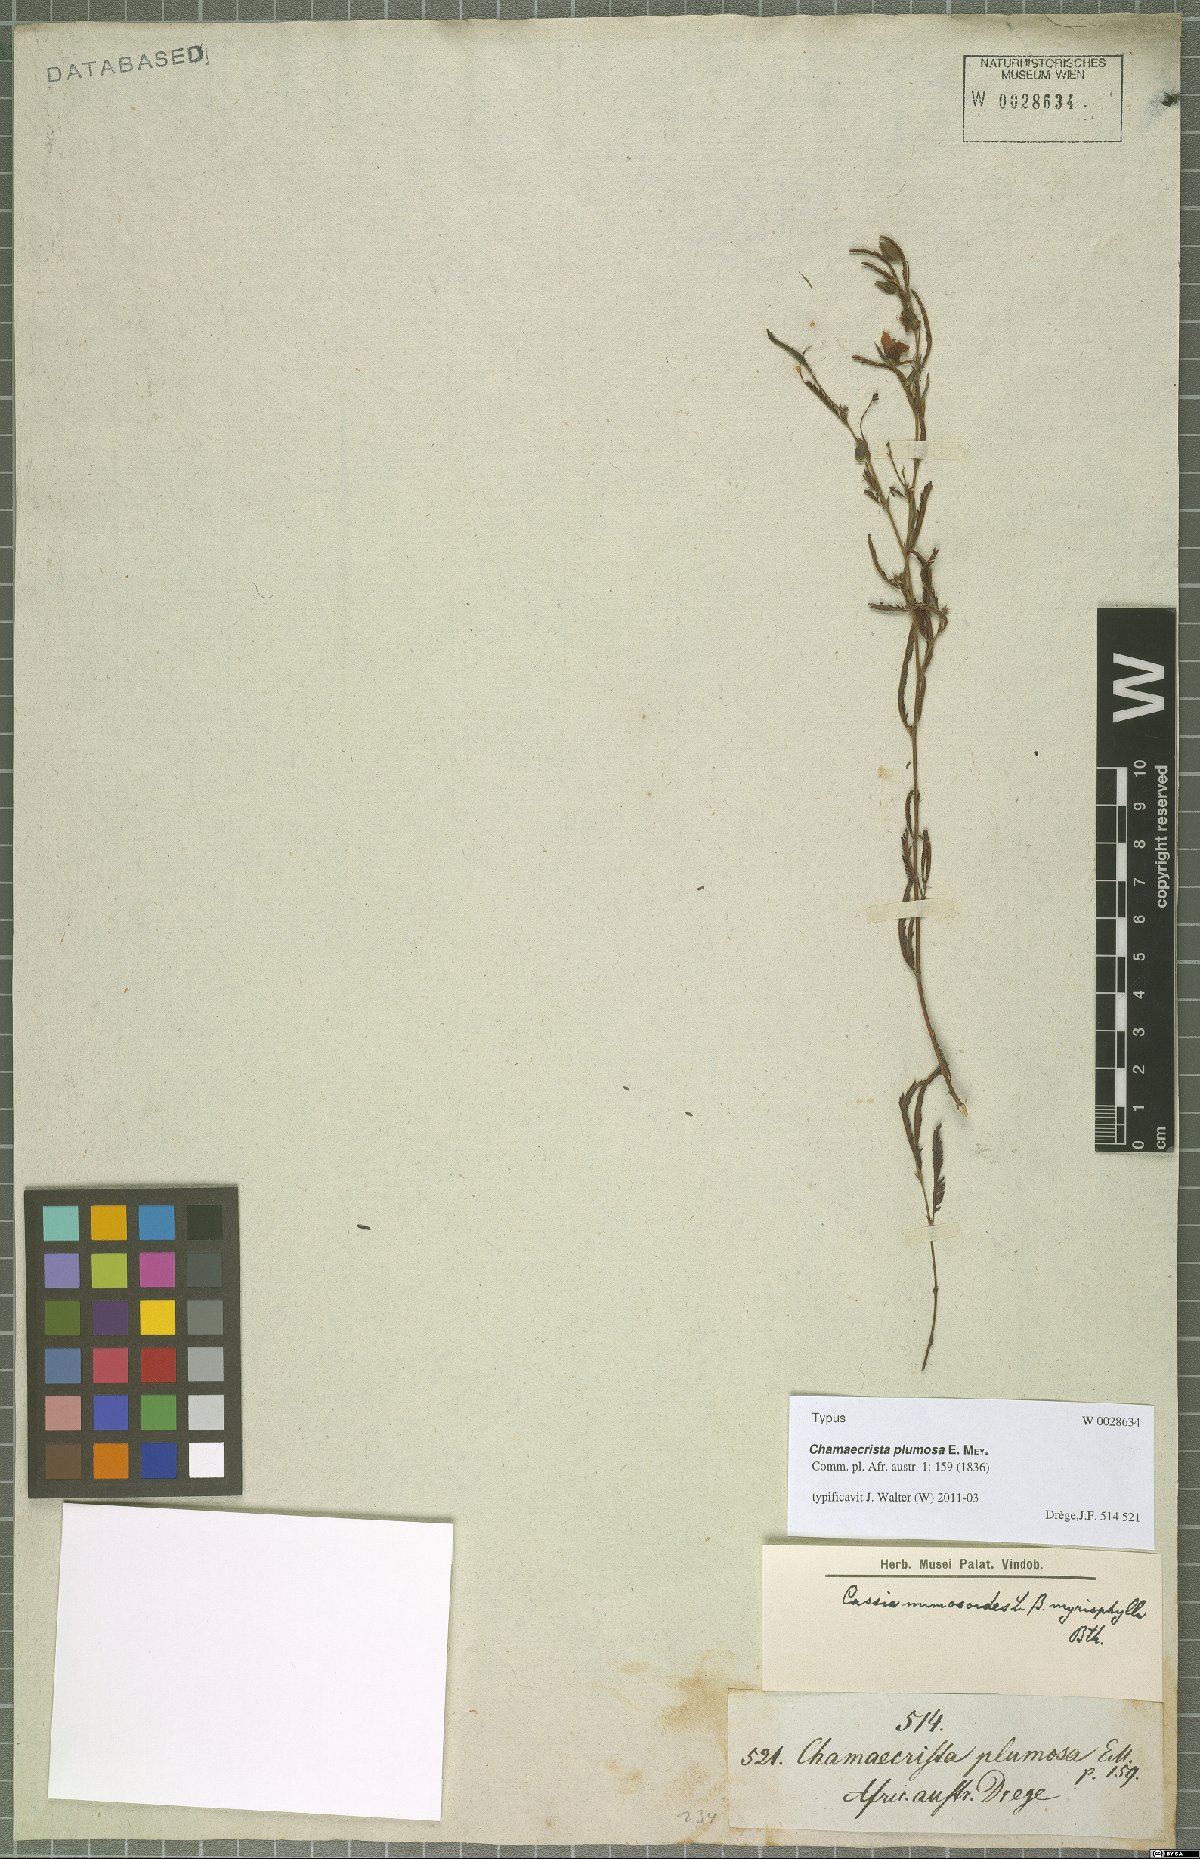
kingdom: Plantae
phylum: Tracheophyta
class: Magnoliopsida
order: Fabales
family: Fabaceae
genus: Chamaecrista
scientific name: Chamaecrista plumosa
